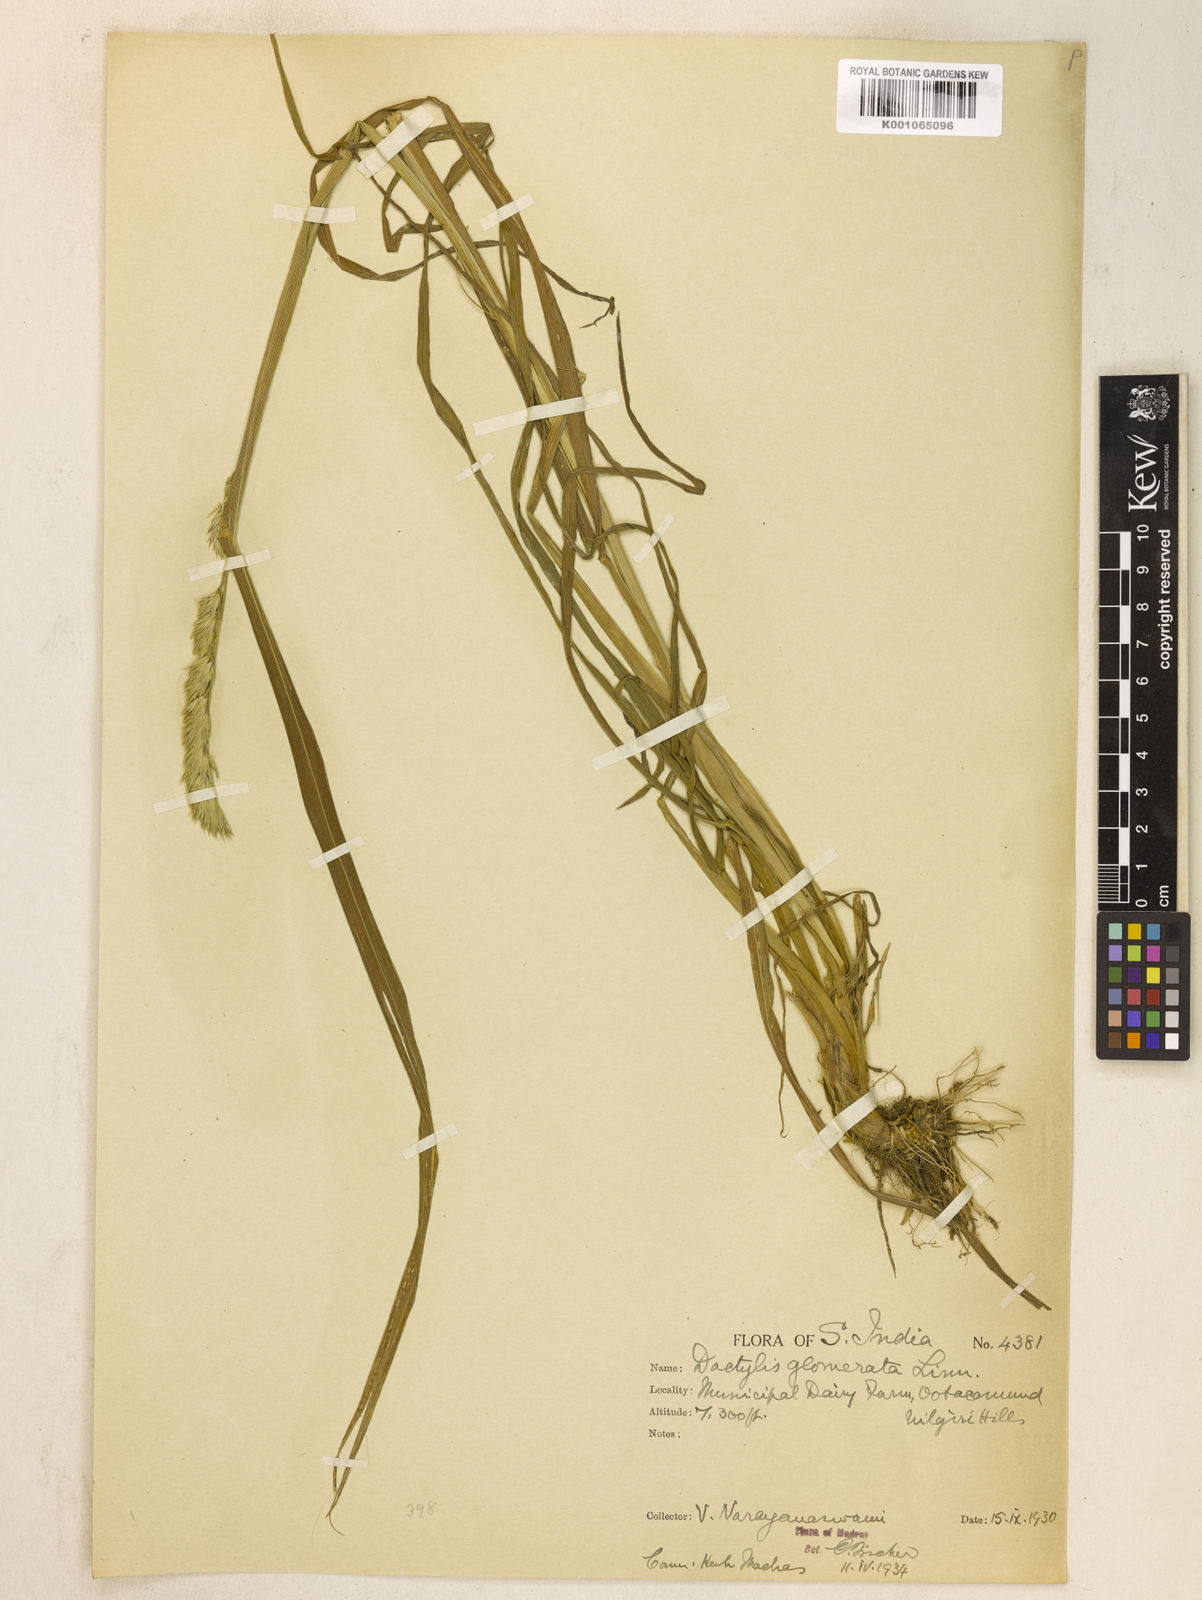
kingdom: Plantae
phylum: Tracheophyta
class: Liliopsida
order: Poales
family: Poaceae
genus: Dactylis
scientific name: Dactylis glomerata
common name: Orchardgrass
